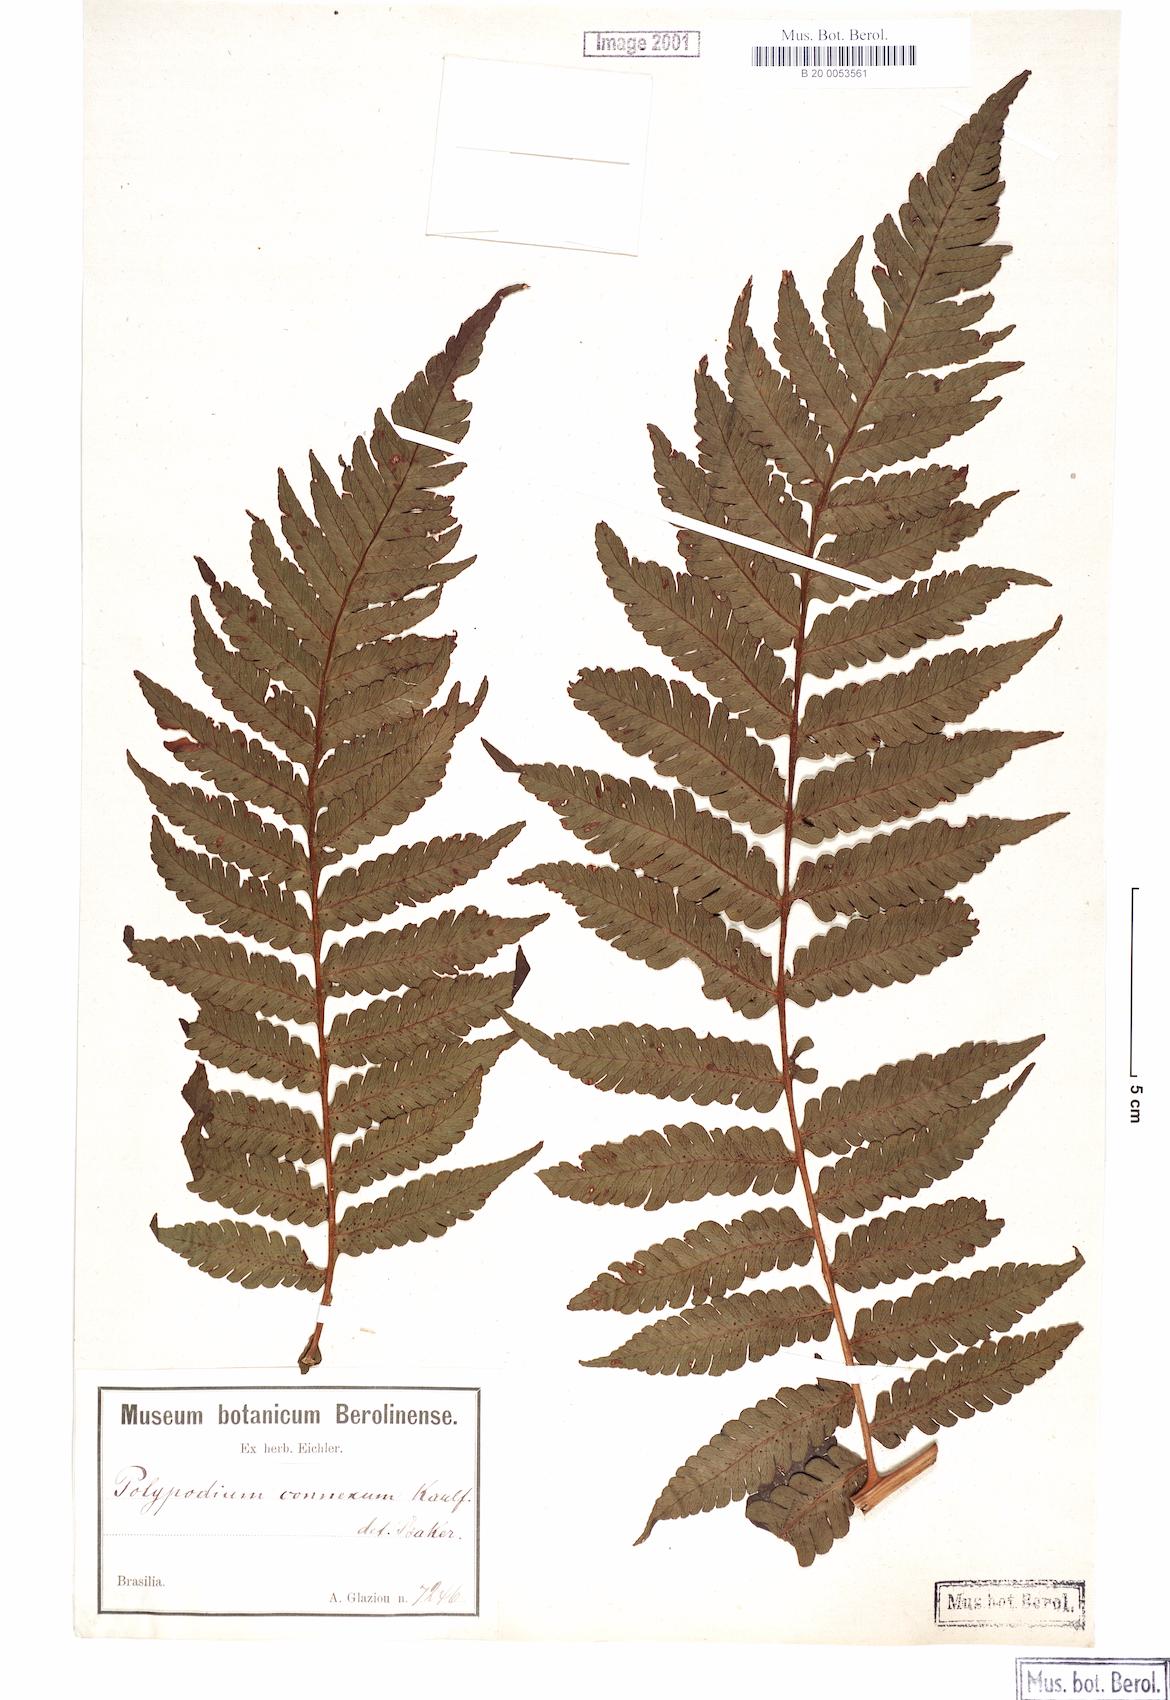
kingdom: Plantae
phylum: Tracheophyta
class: Polypodiopsida
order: Polypodiales
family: Dryopteridaceae
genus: Megalastrum
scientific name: Megalastrum connexum
